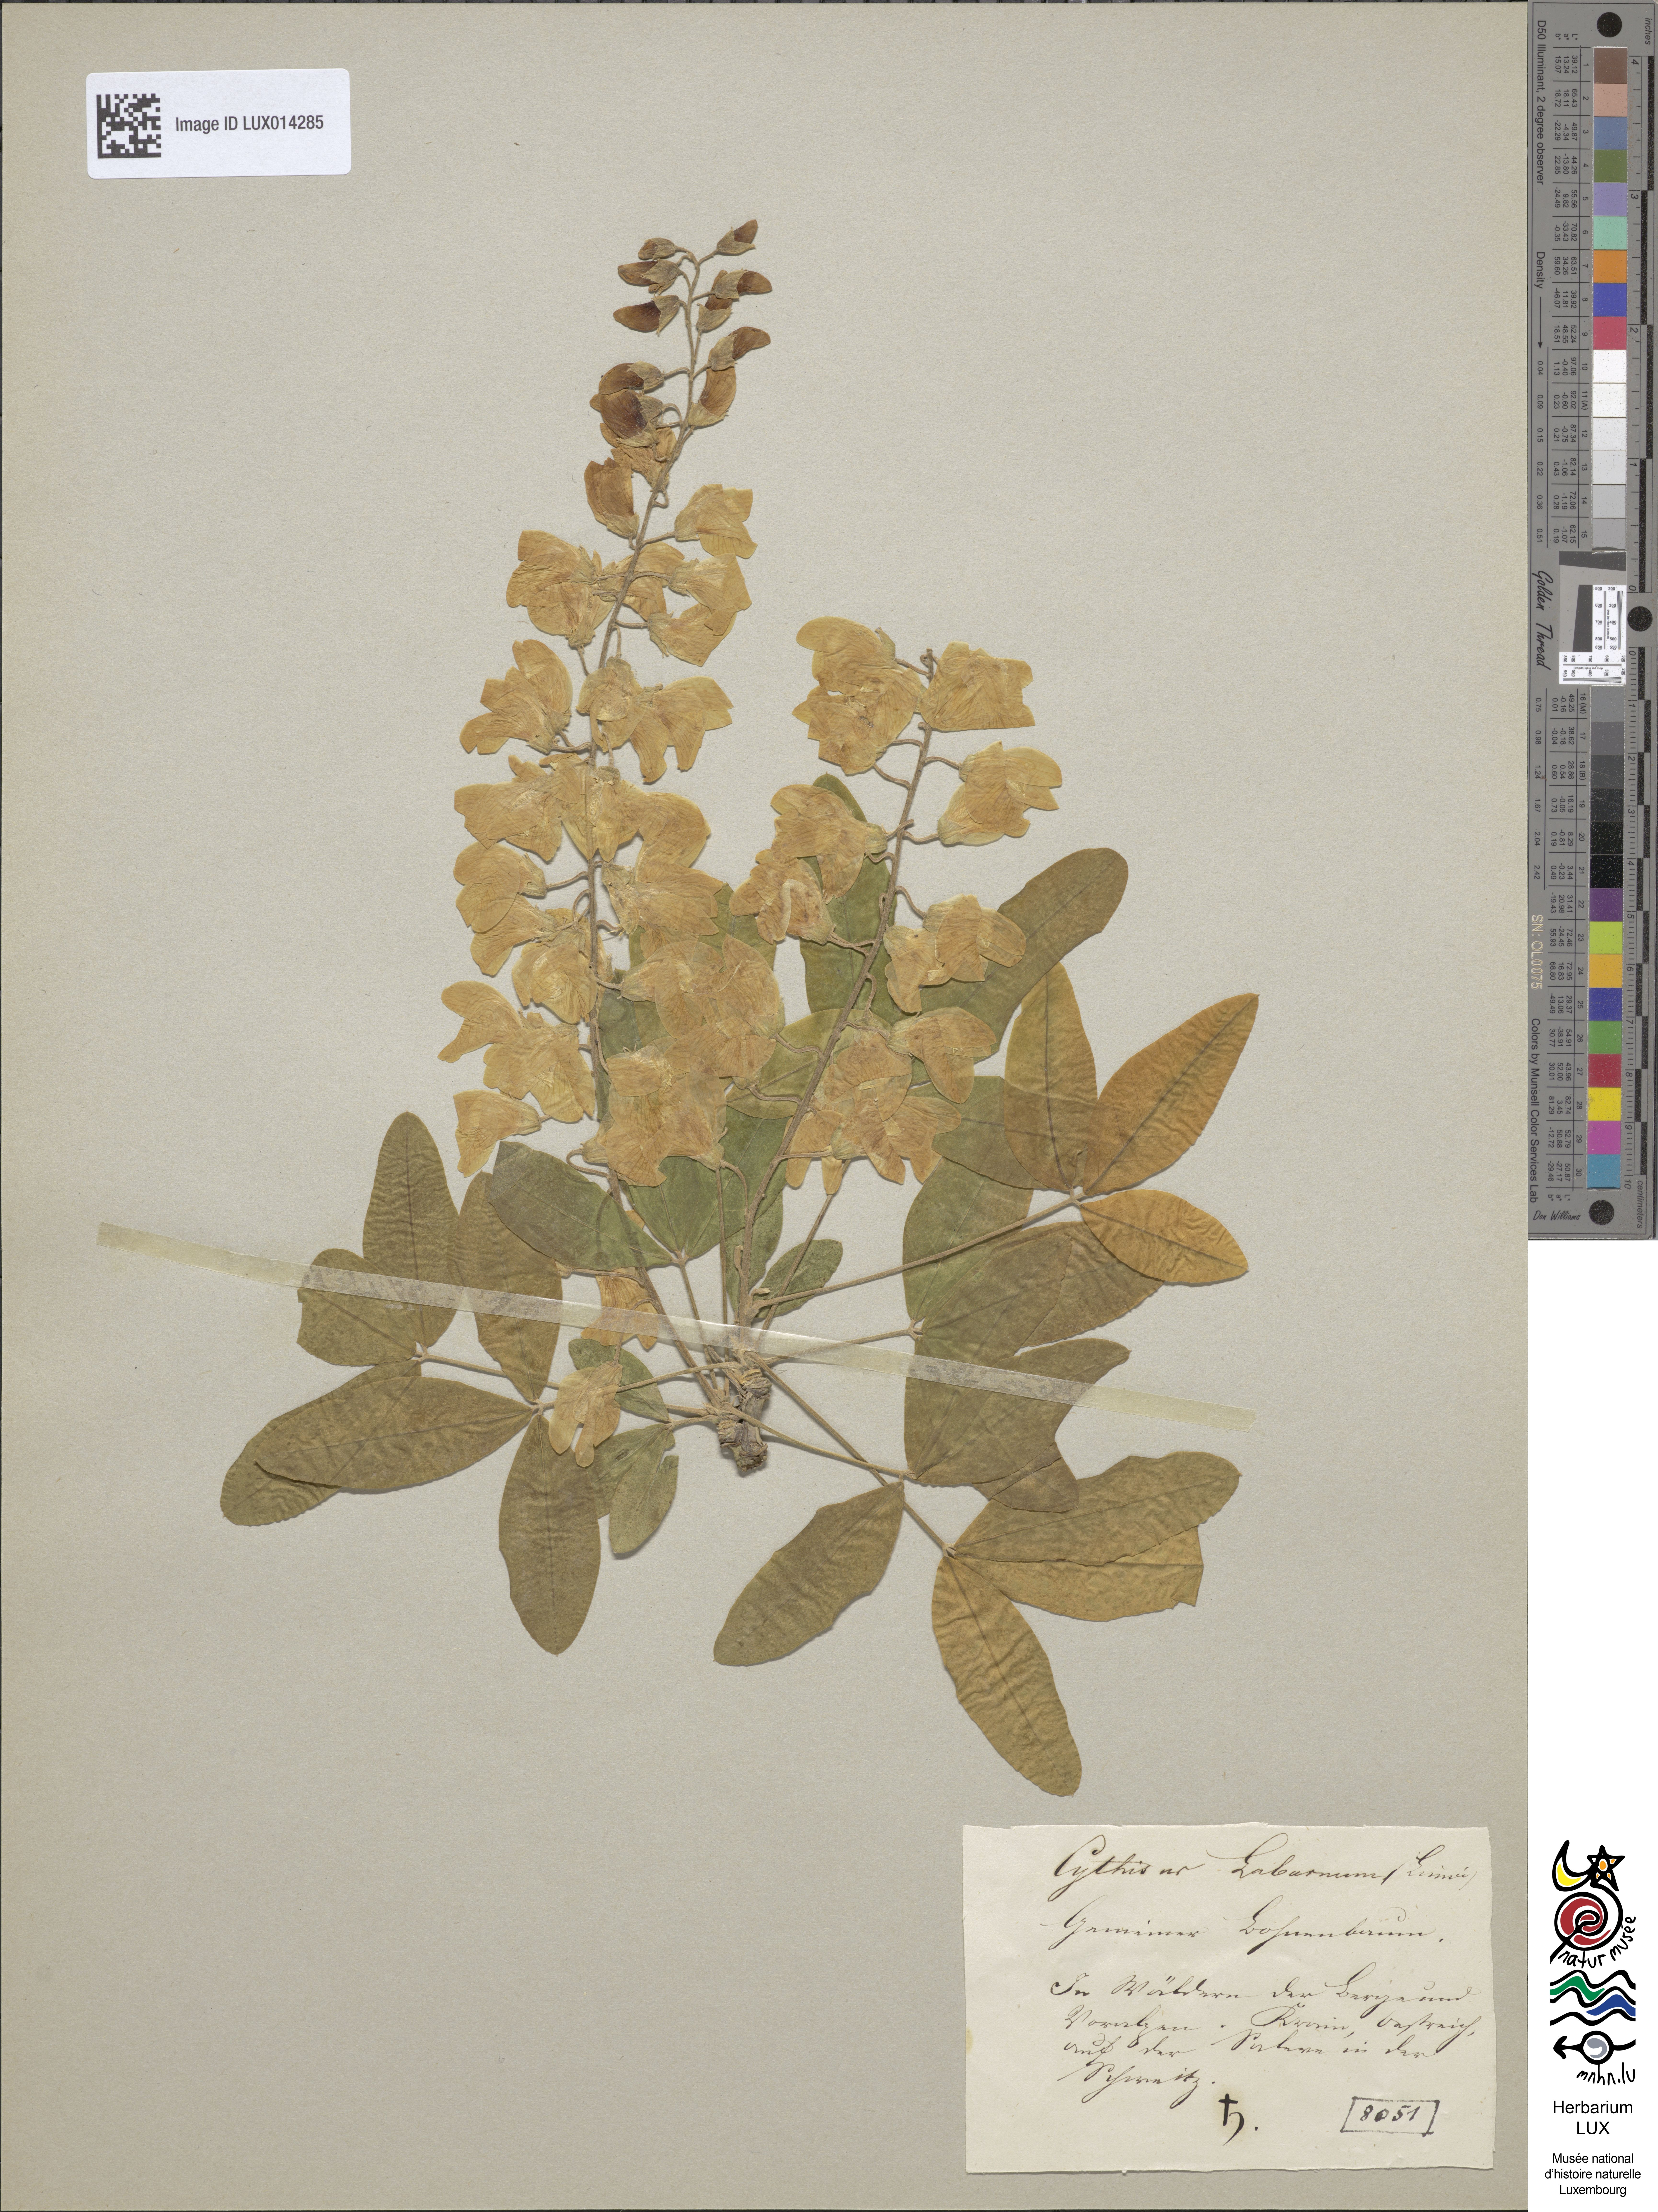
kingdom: Plantae
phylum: Tracheophyta
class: Magnoliopsida
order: Fabales
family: Fabaceae
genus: Laburnum
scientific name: Laburnum anagyroides
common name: Laburnum
